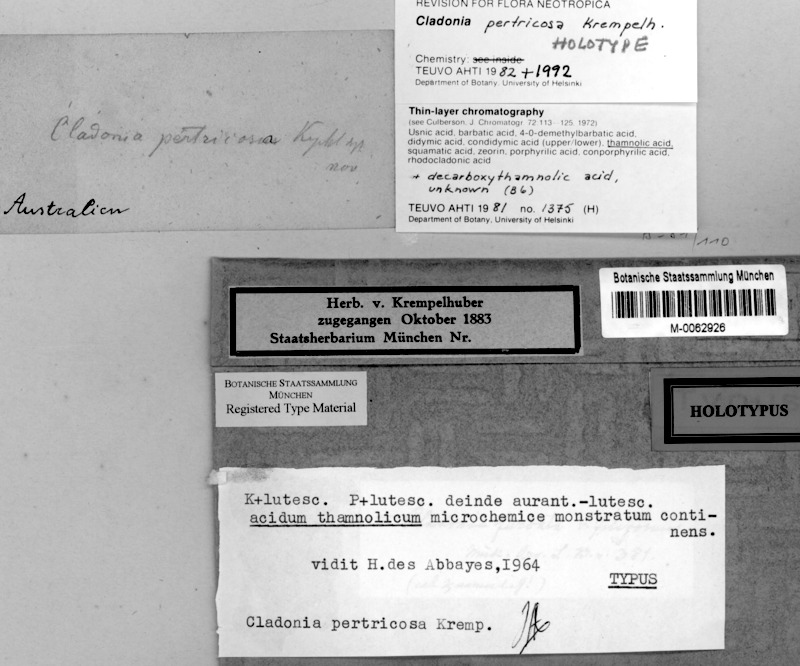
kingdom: Fungi
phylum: Ascomycota
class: Lecanoromycetes
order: Lecanorales
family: Cladoniaceae
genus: Cladonia
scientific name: Cladonia pertricosa
